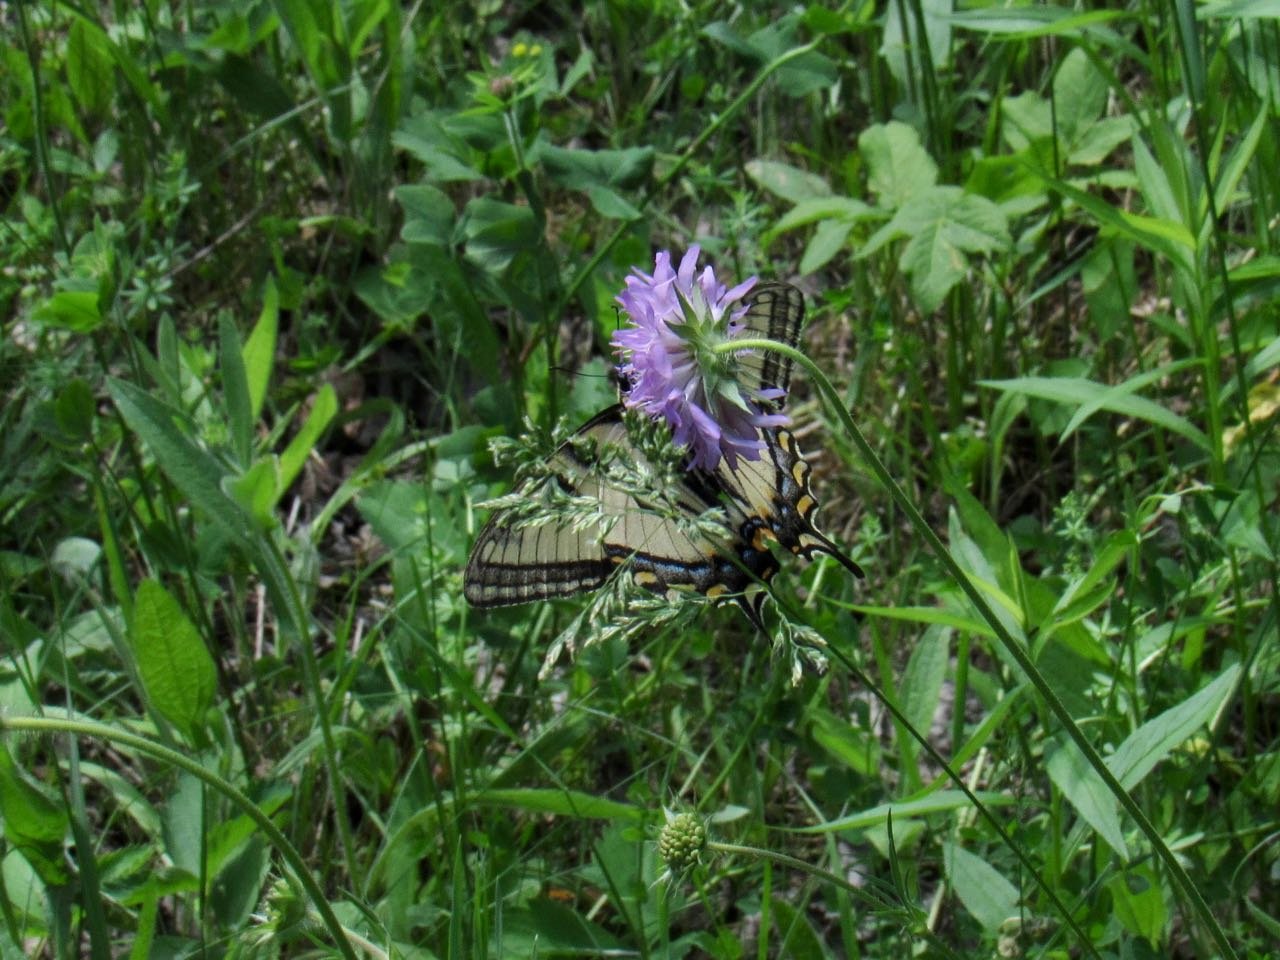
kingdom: Animalia
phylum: Arthropoda
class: Insecta
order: Lepidoptera
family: Papilionidae
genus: Pterourus
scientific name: Pterourus canadensis
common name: Canadian Tiger Swallowtail
